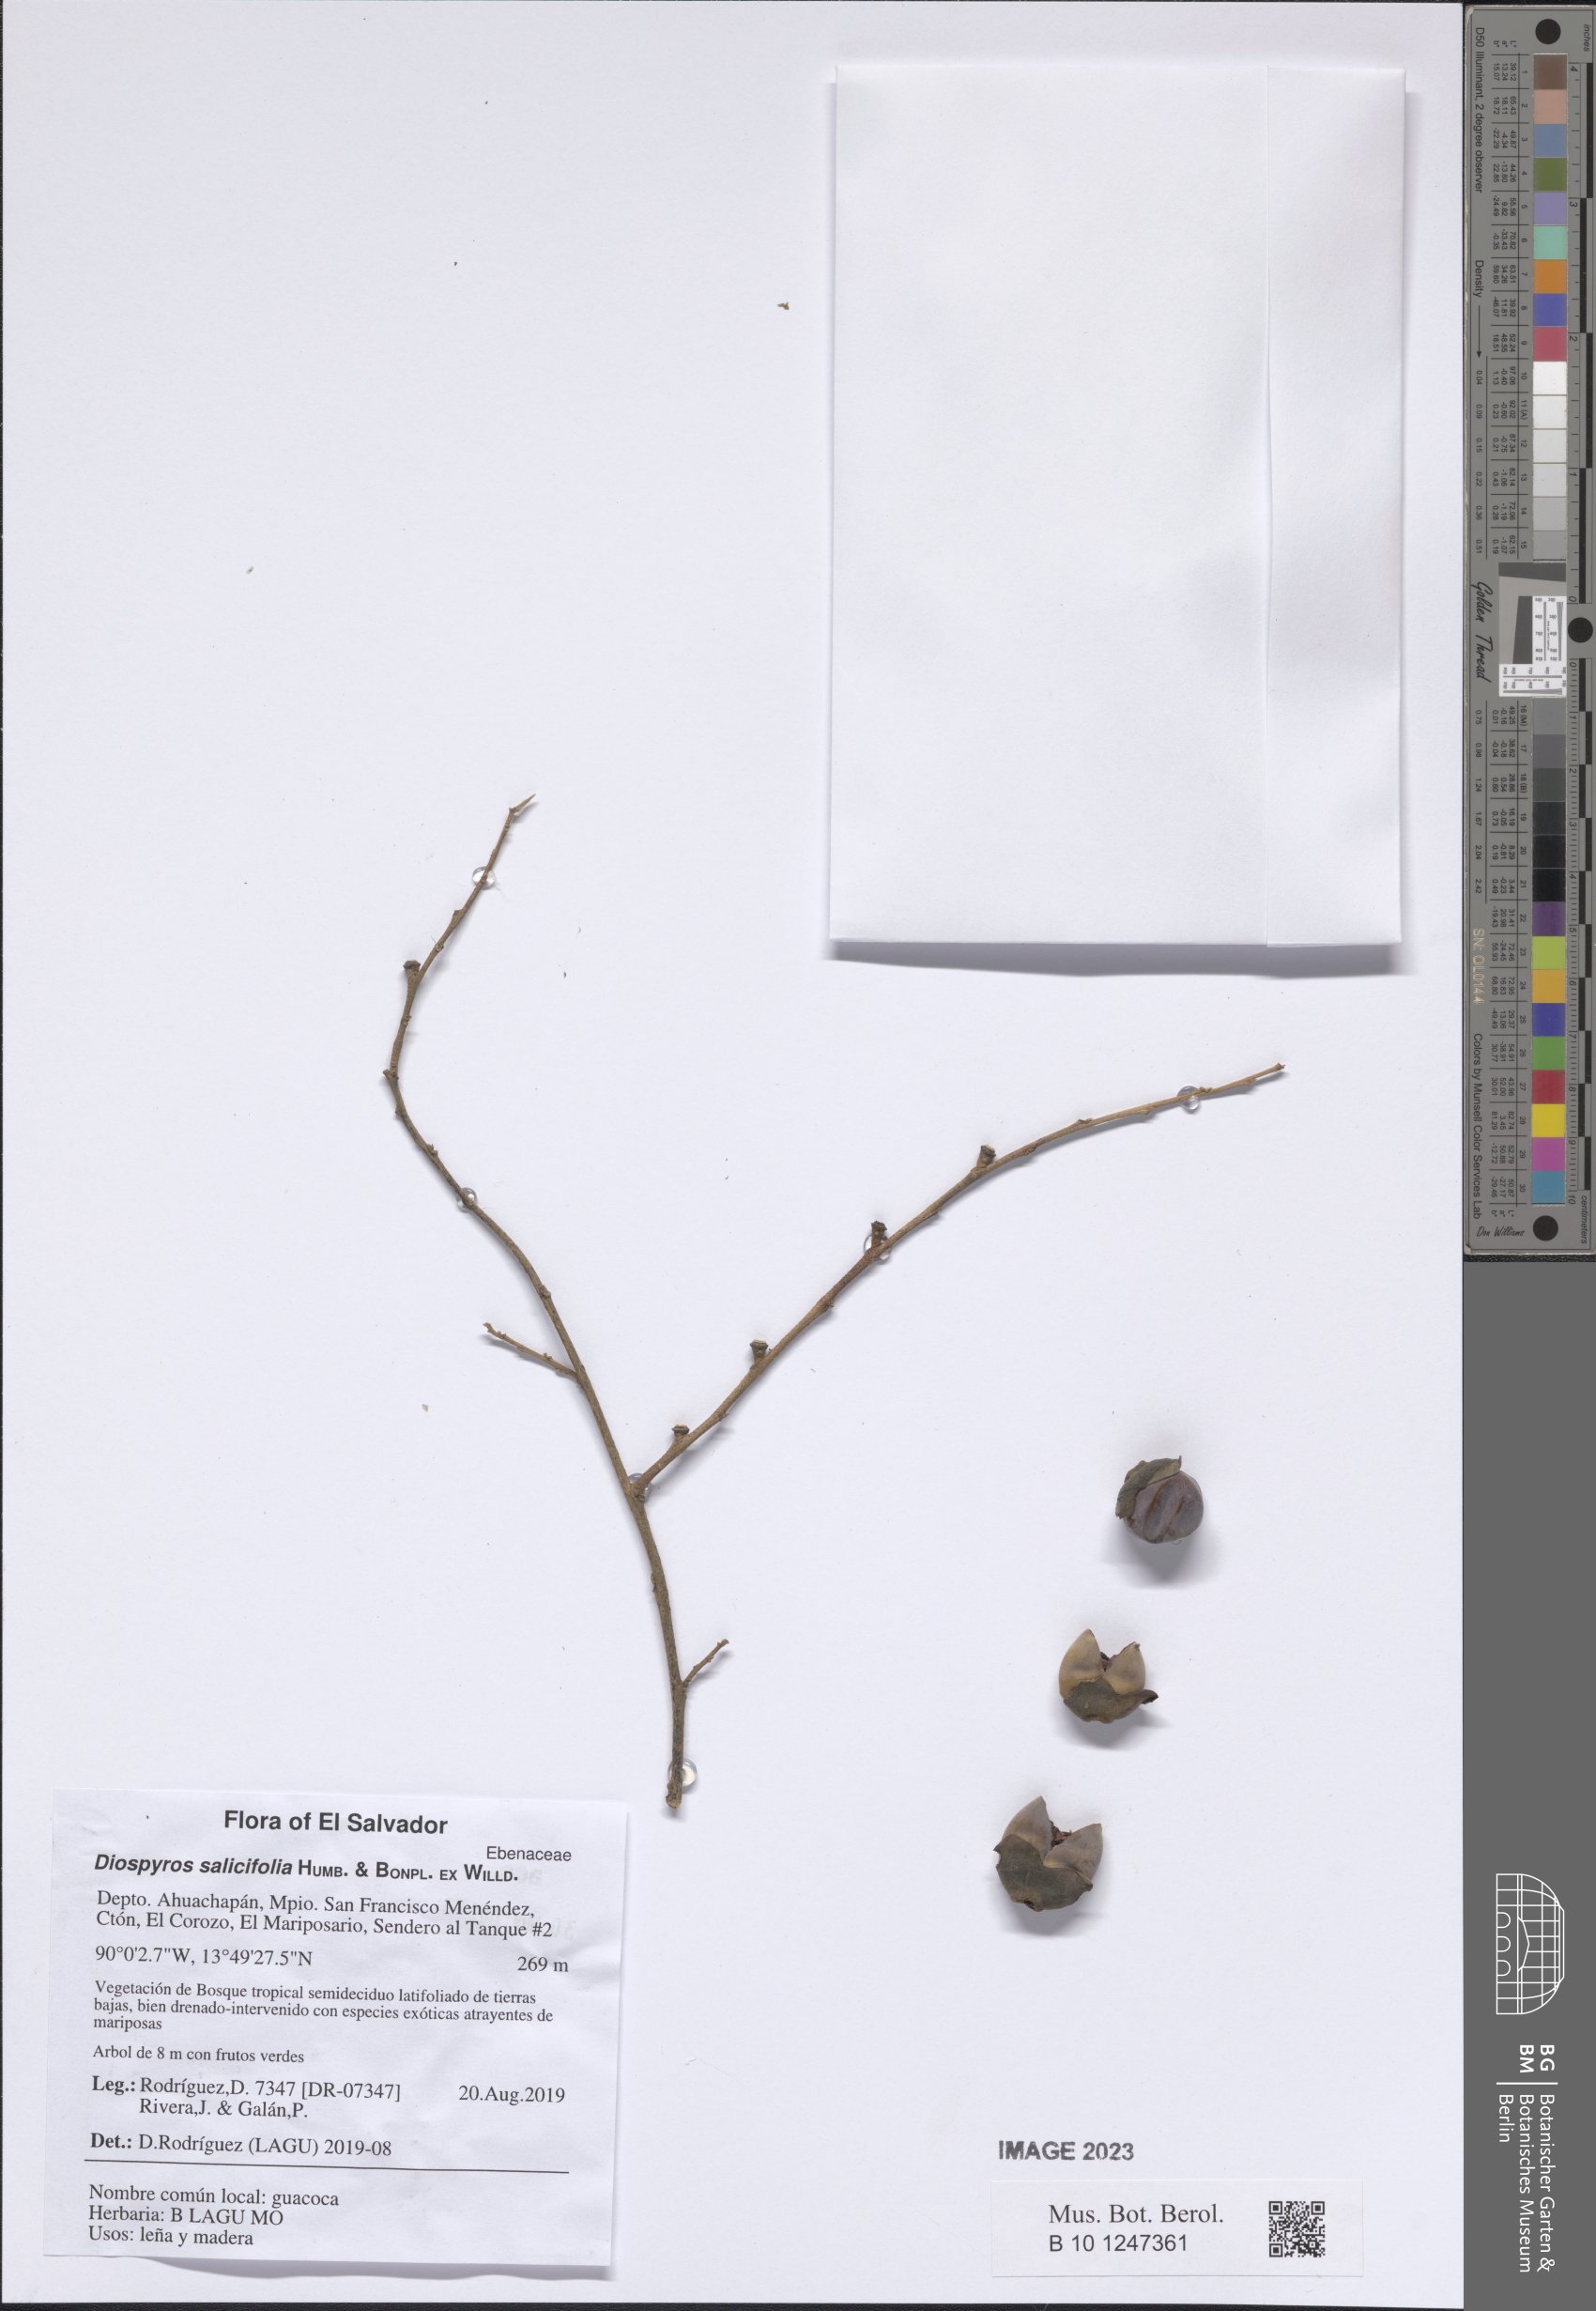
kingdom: Plantae
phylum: Tracheophyta
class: Magnoliopsida
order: Ericales
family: Ebenaceae
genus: Diospyros
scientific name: Diospyros salicifolia
